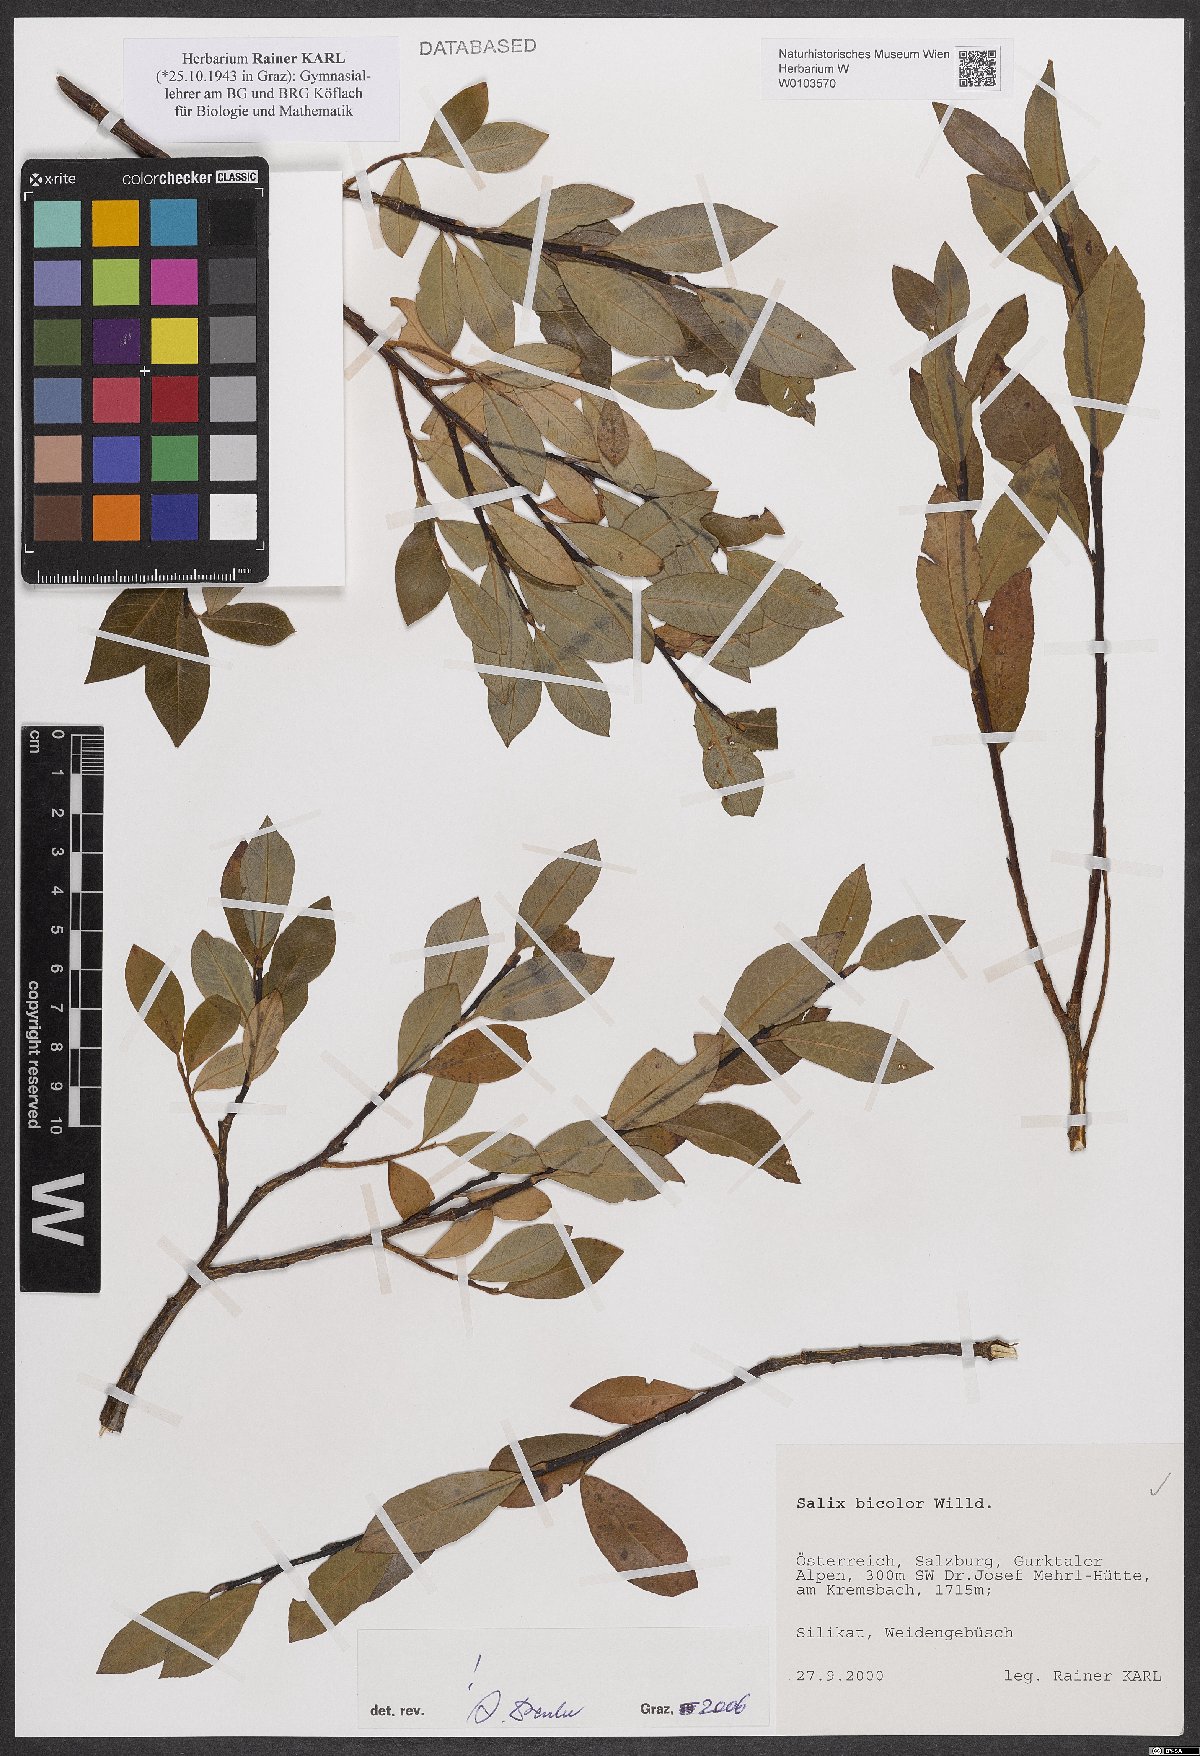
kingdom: Plantae
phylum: Tracheophyta
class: Magnoliopsida
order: Malpighiales
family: Salicaceae
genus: Salix
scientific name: Salix bicolor
